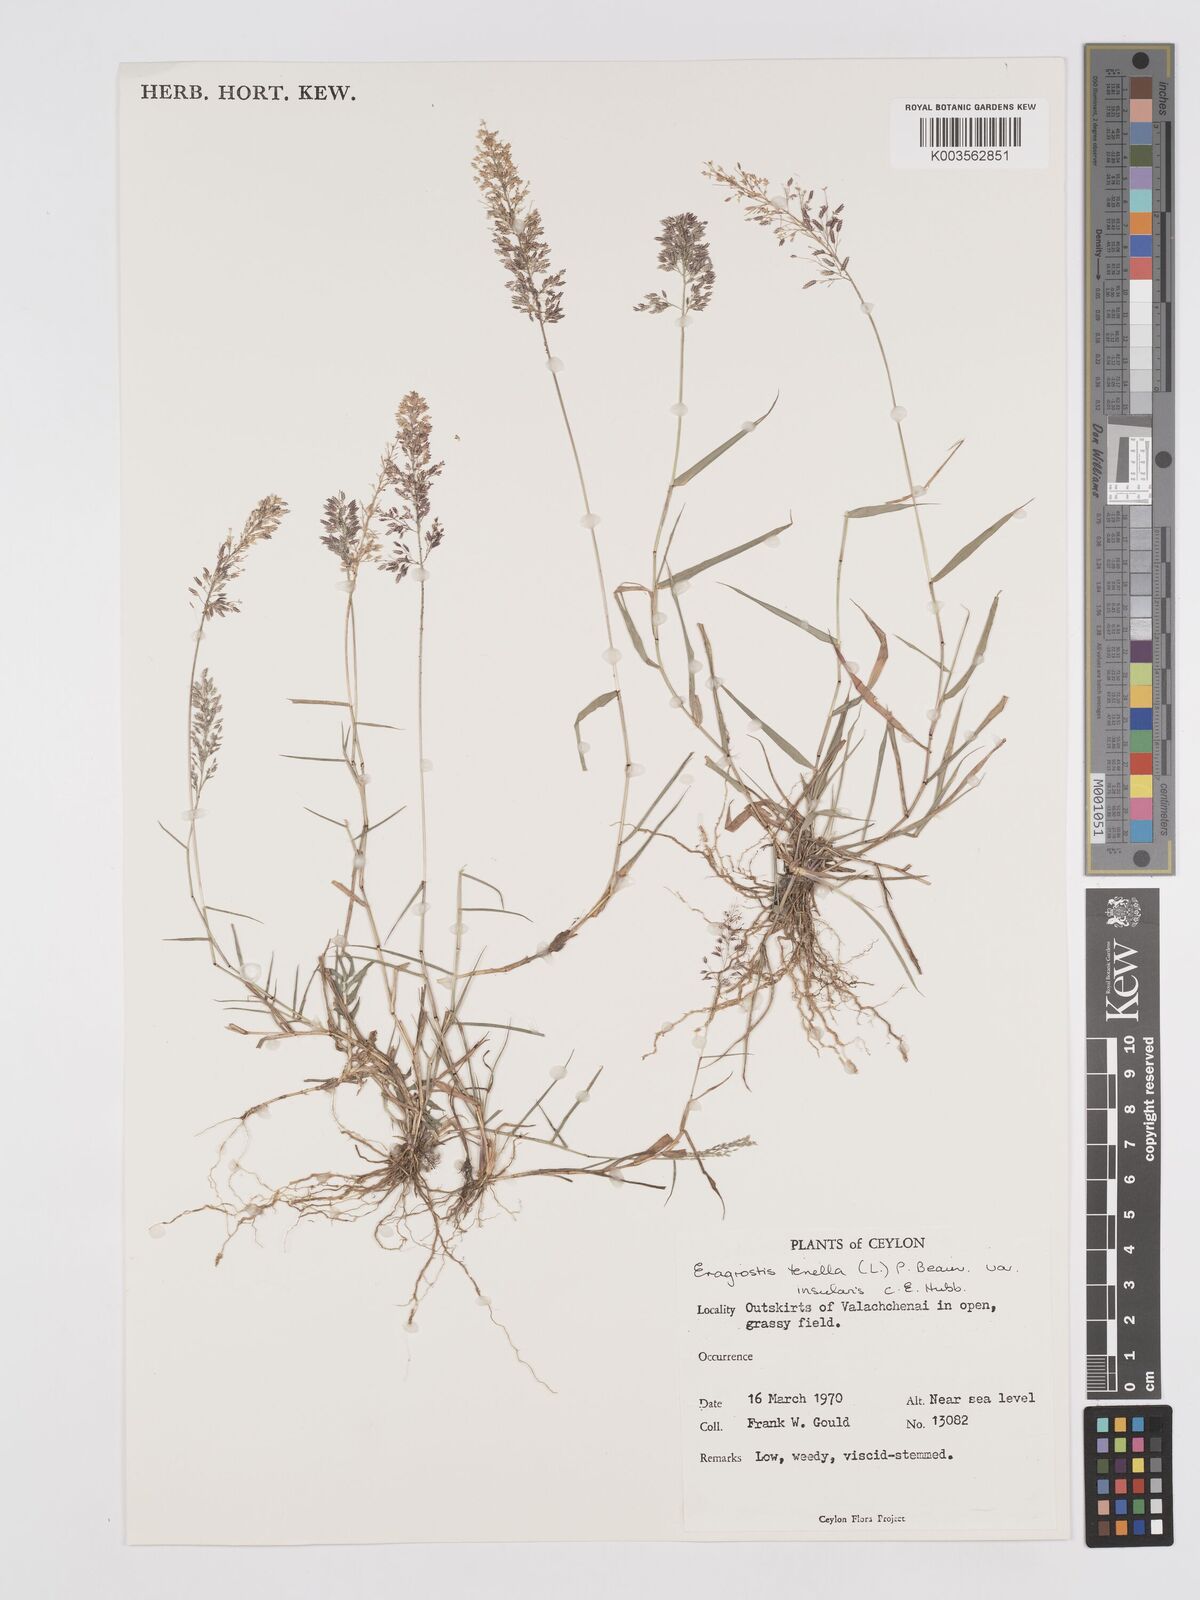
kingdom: Plantae
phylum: Tracheophyta
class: Liliopsida
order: Poales
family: Poaceae
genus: Eragrostis
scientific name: Eragrostis viscosa
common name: Sticky love grass
